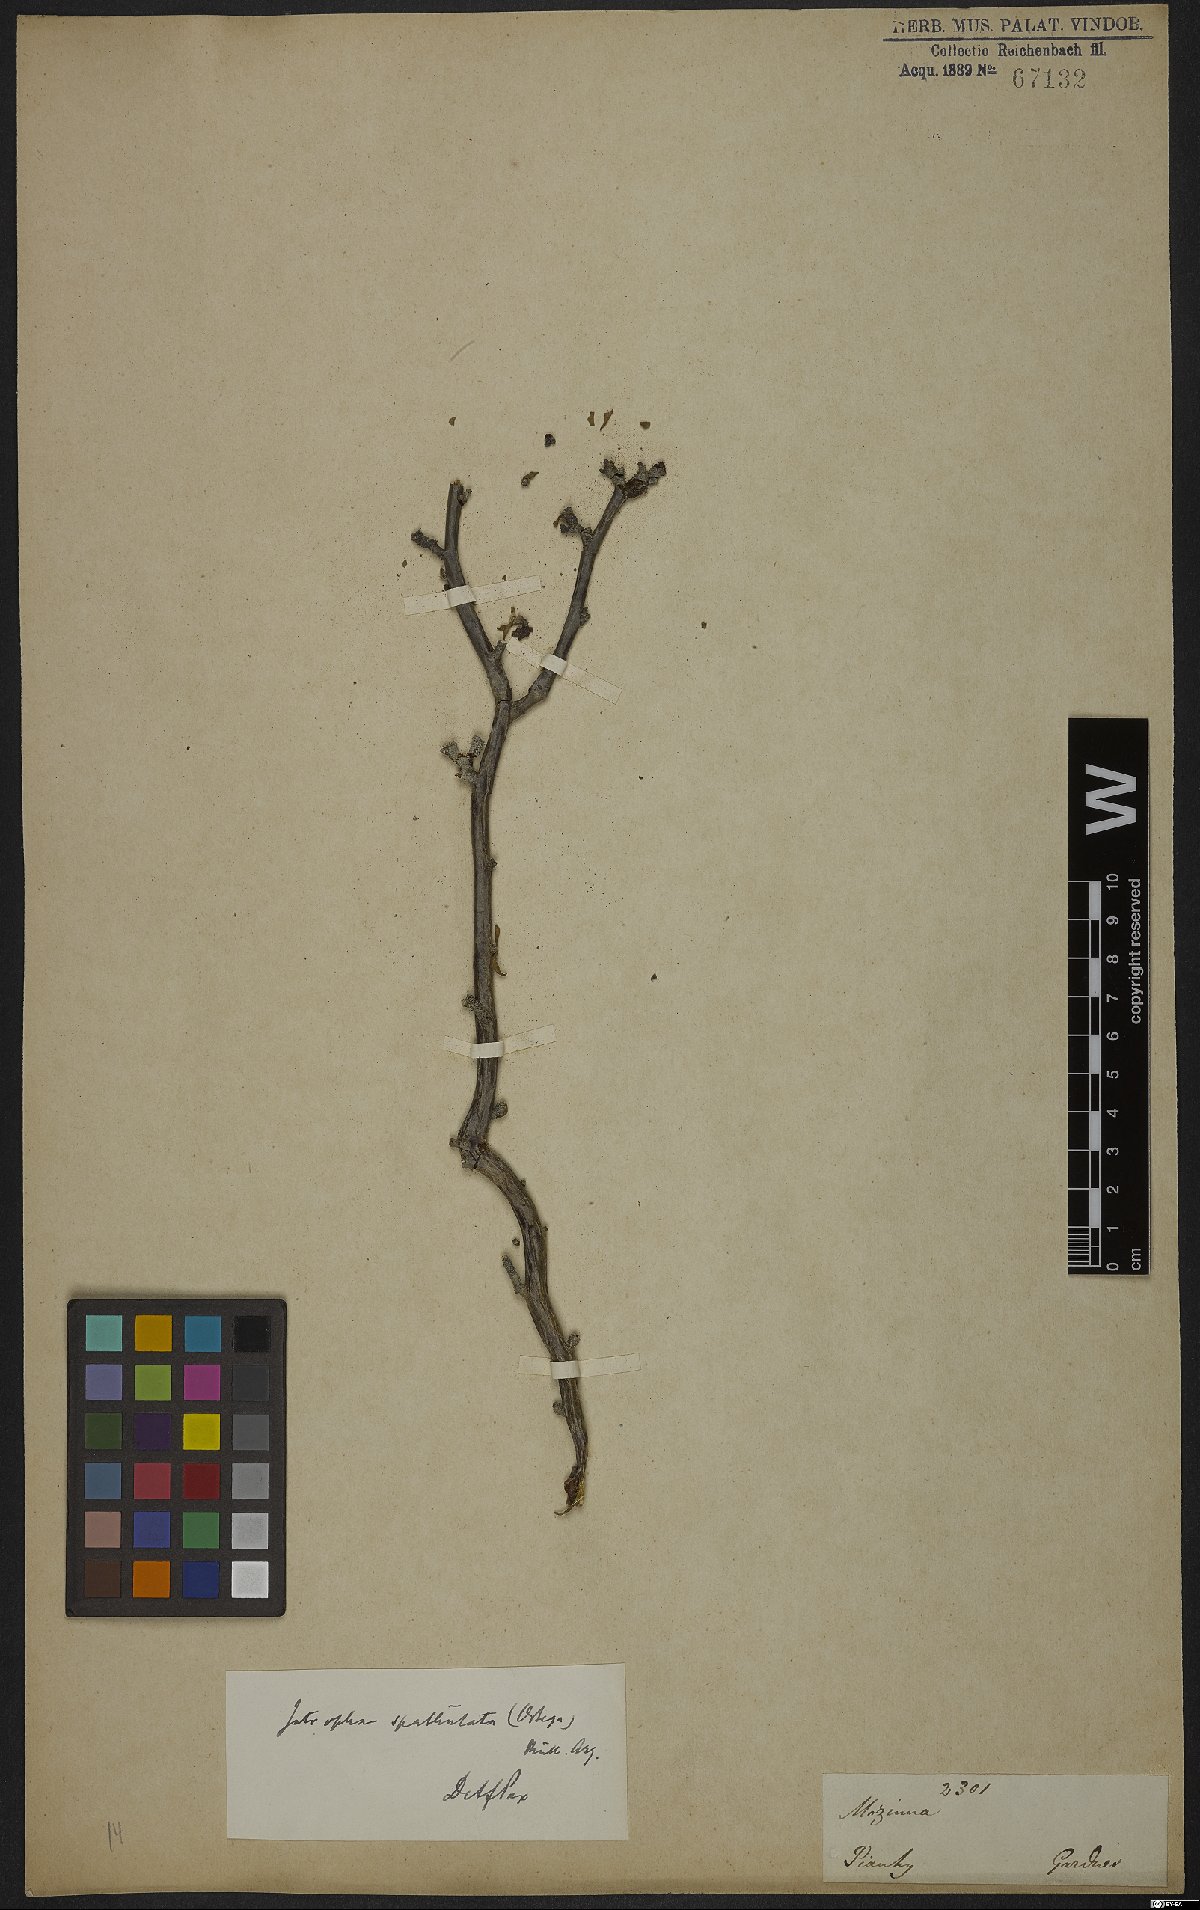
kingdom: Plantae
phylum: Tracheophyta
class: Magnoliopsida
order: Malpighiales
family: Euphorbiaceae
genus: Jatropha
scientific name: Jatropha dioica
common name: Leatherstem
